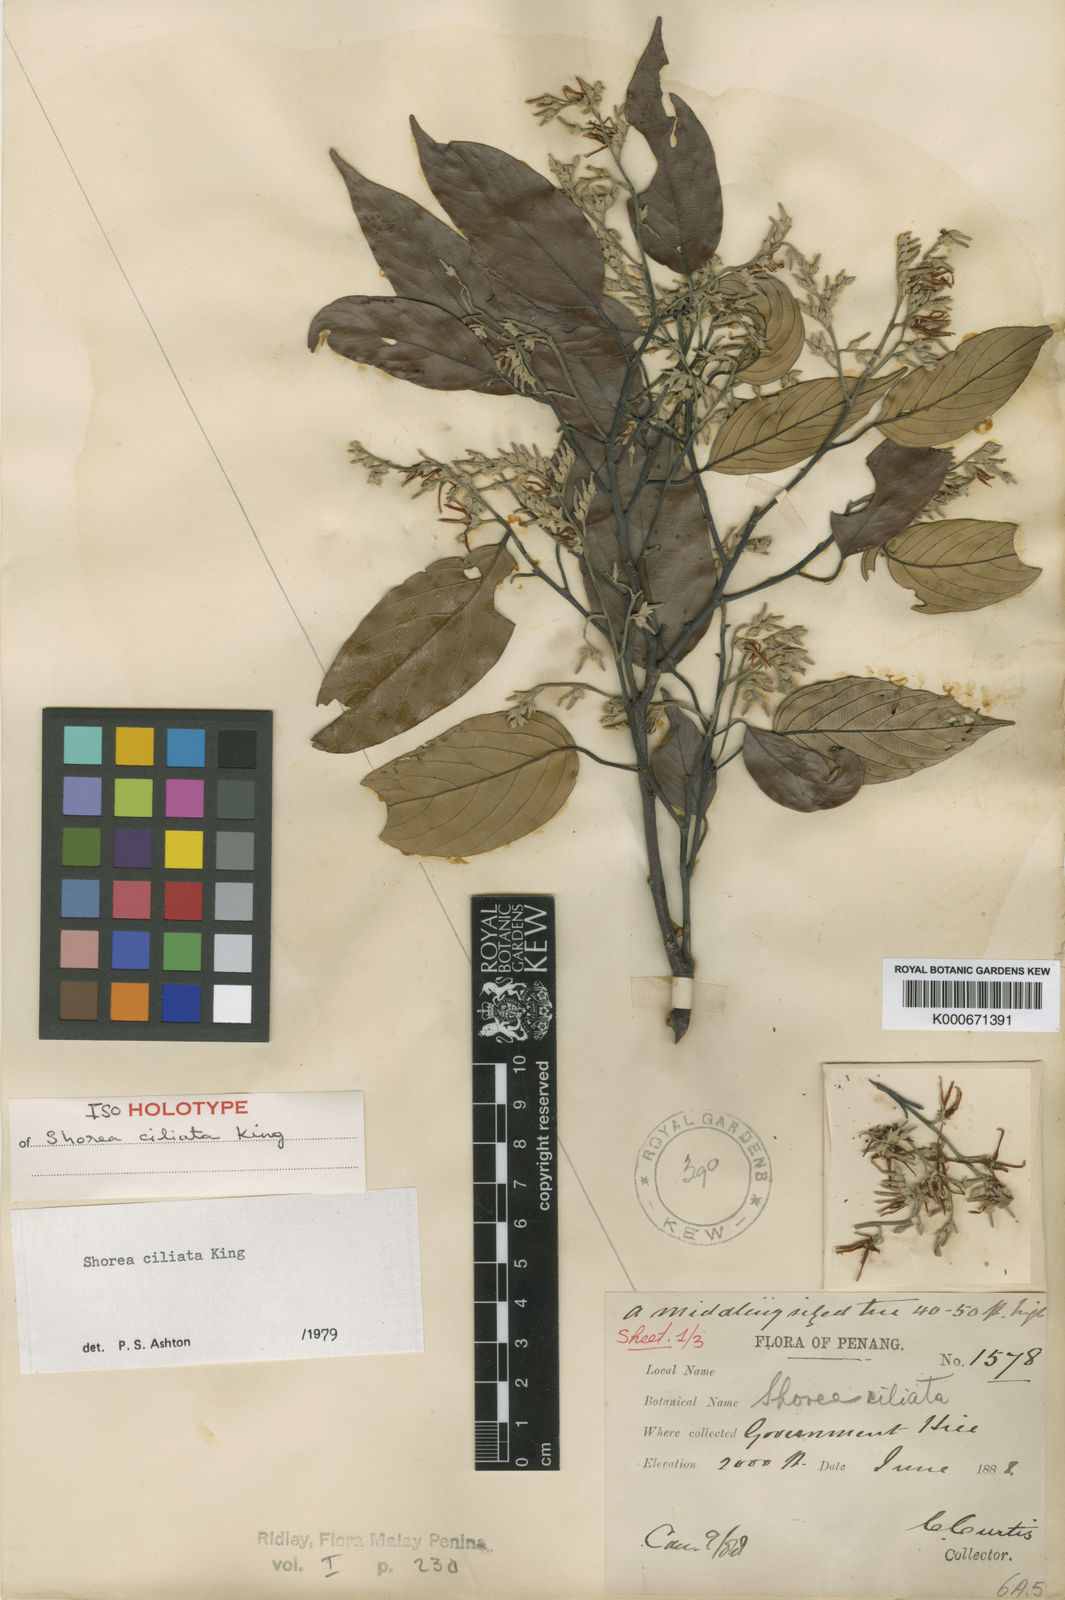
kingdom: Plantae
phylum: Tracheophyta
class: Magnoliopsida
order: Malvales
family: Dipterocarpaceae
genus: Shorea
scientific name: Shorea ciliata
